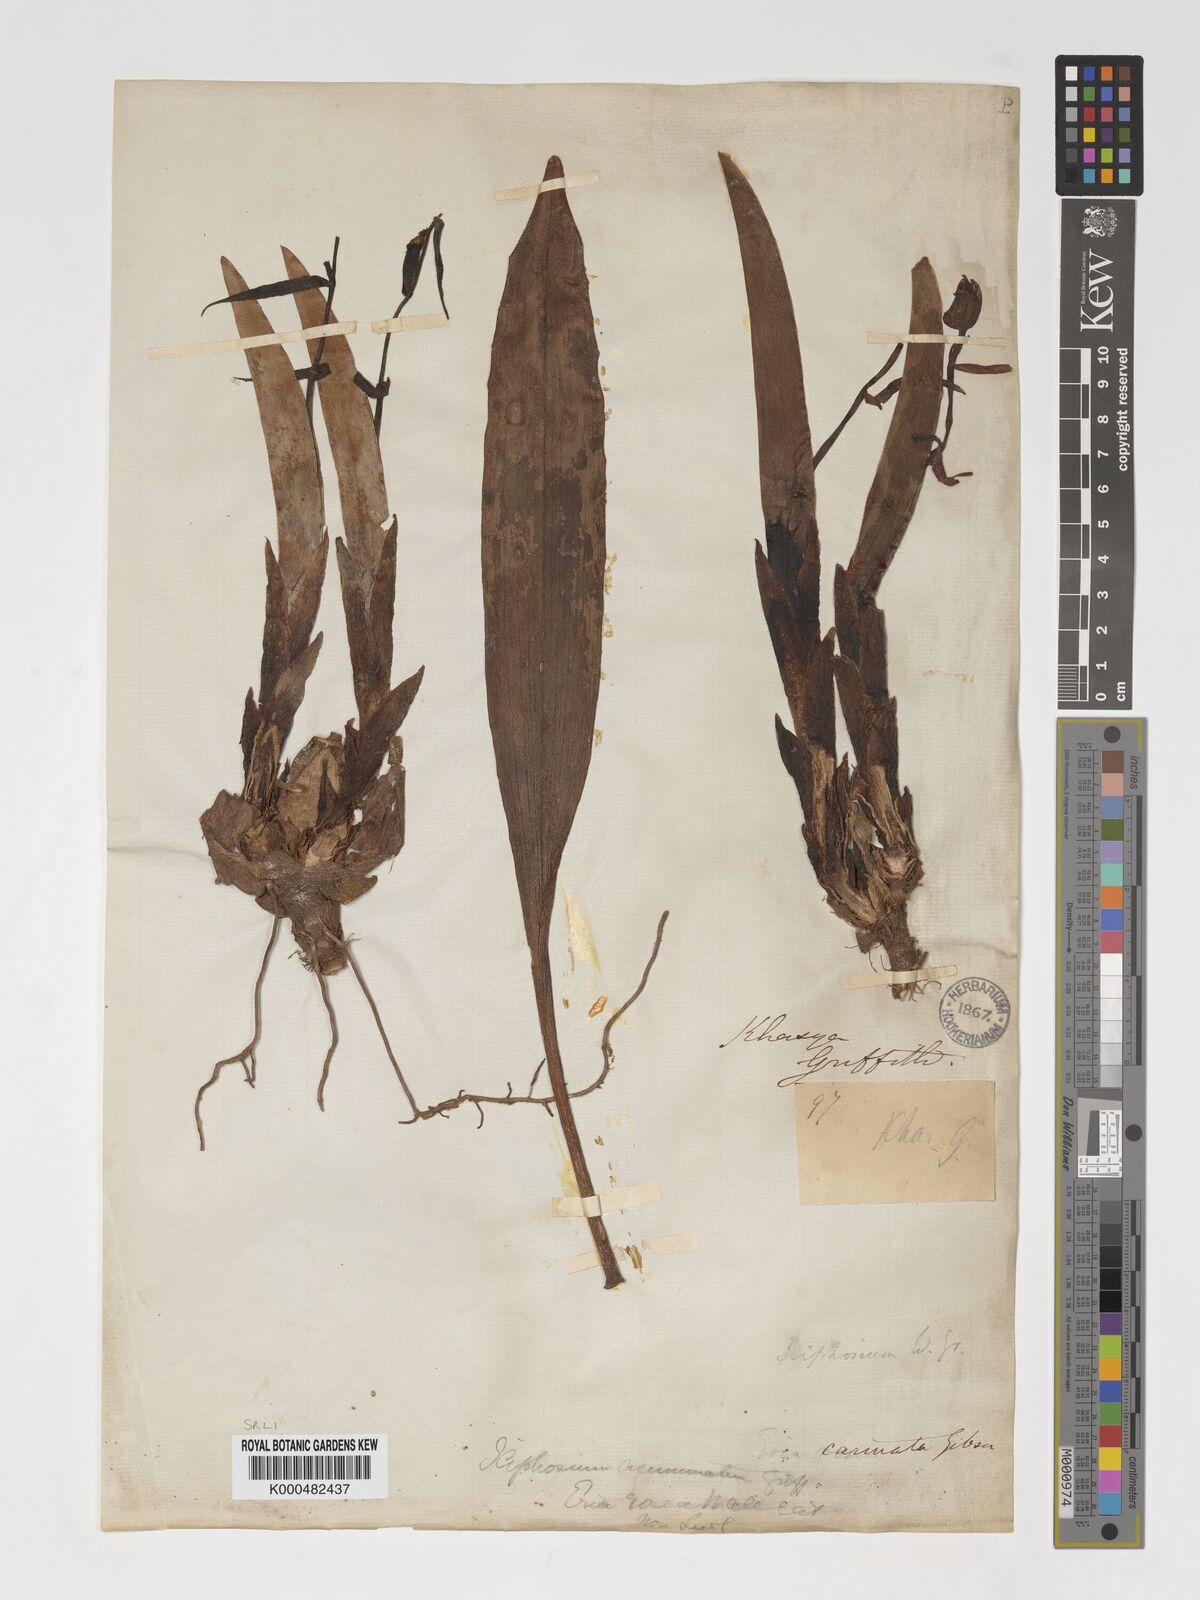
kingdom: Plantae
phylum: Tracheophyta
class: Liliopsida
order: Asparagales
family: Orchidaceae
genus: Eria
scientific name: Eria
